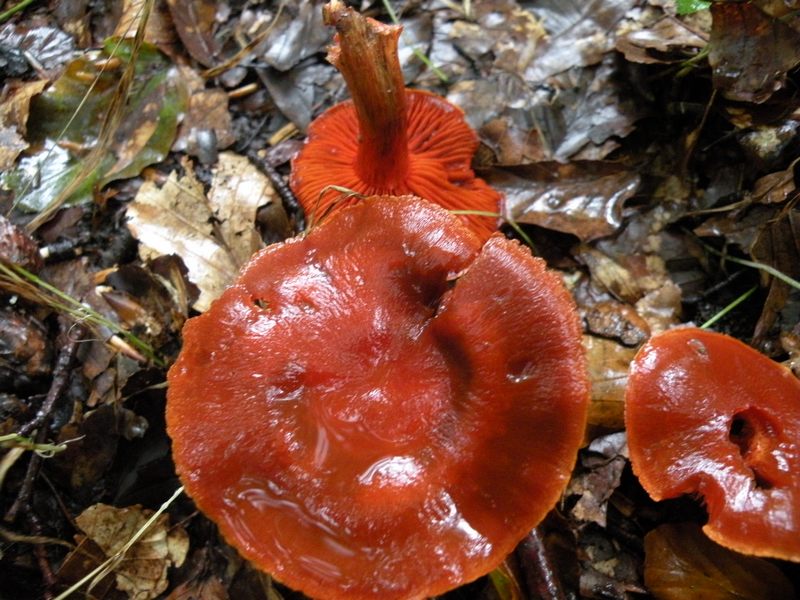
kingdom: Fungi
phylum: Basidiomycota
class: Agaricomycetes
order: Agaricales
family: Cortinariaceae
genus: Cortinarius
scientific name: Cortinarius cinnabarinus
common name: cinnober-slørhat
